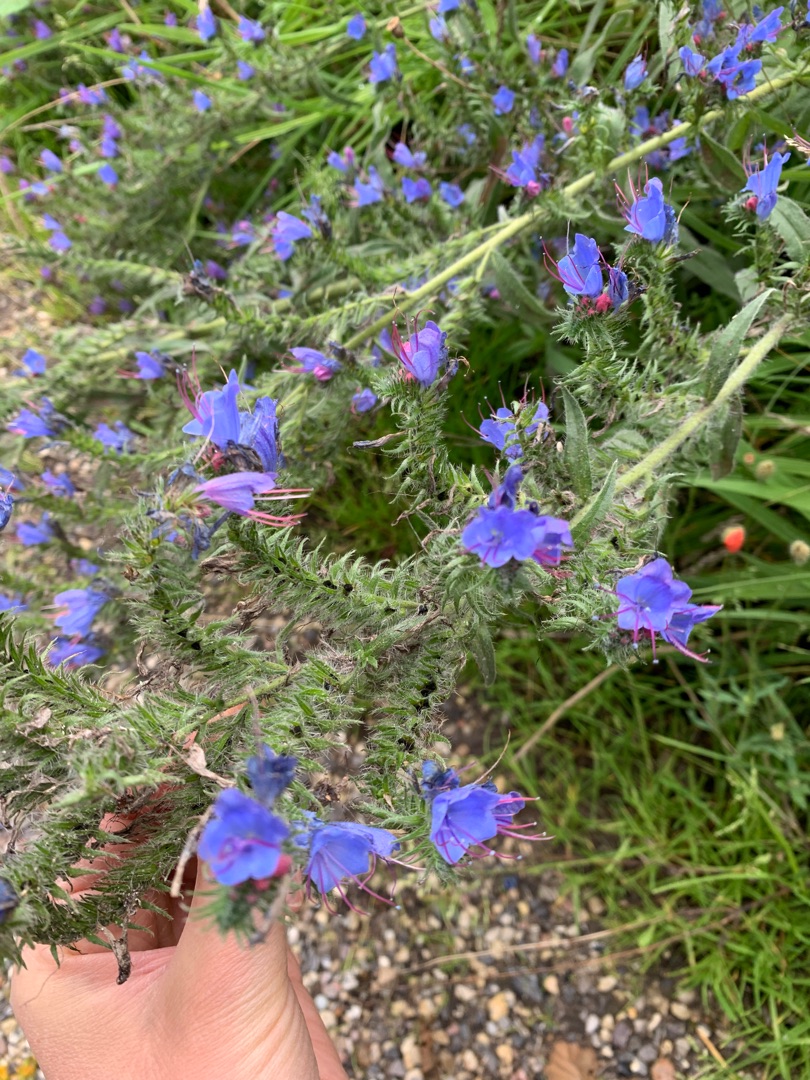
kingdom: Plantae
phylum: Tracheophyta
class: Magnoliopsida
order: Boraginales
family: Boraginaceae
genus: Echium
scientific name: Echium vulgare
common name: Slangehoved
